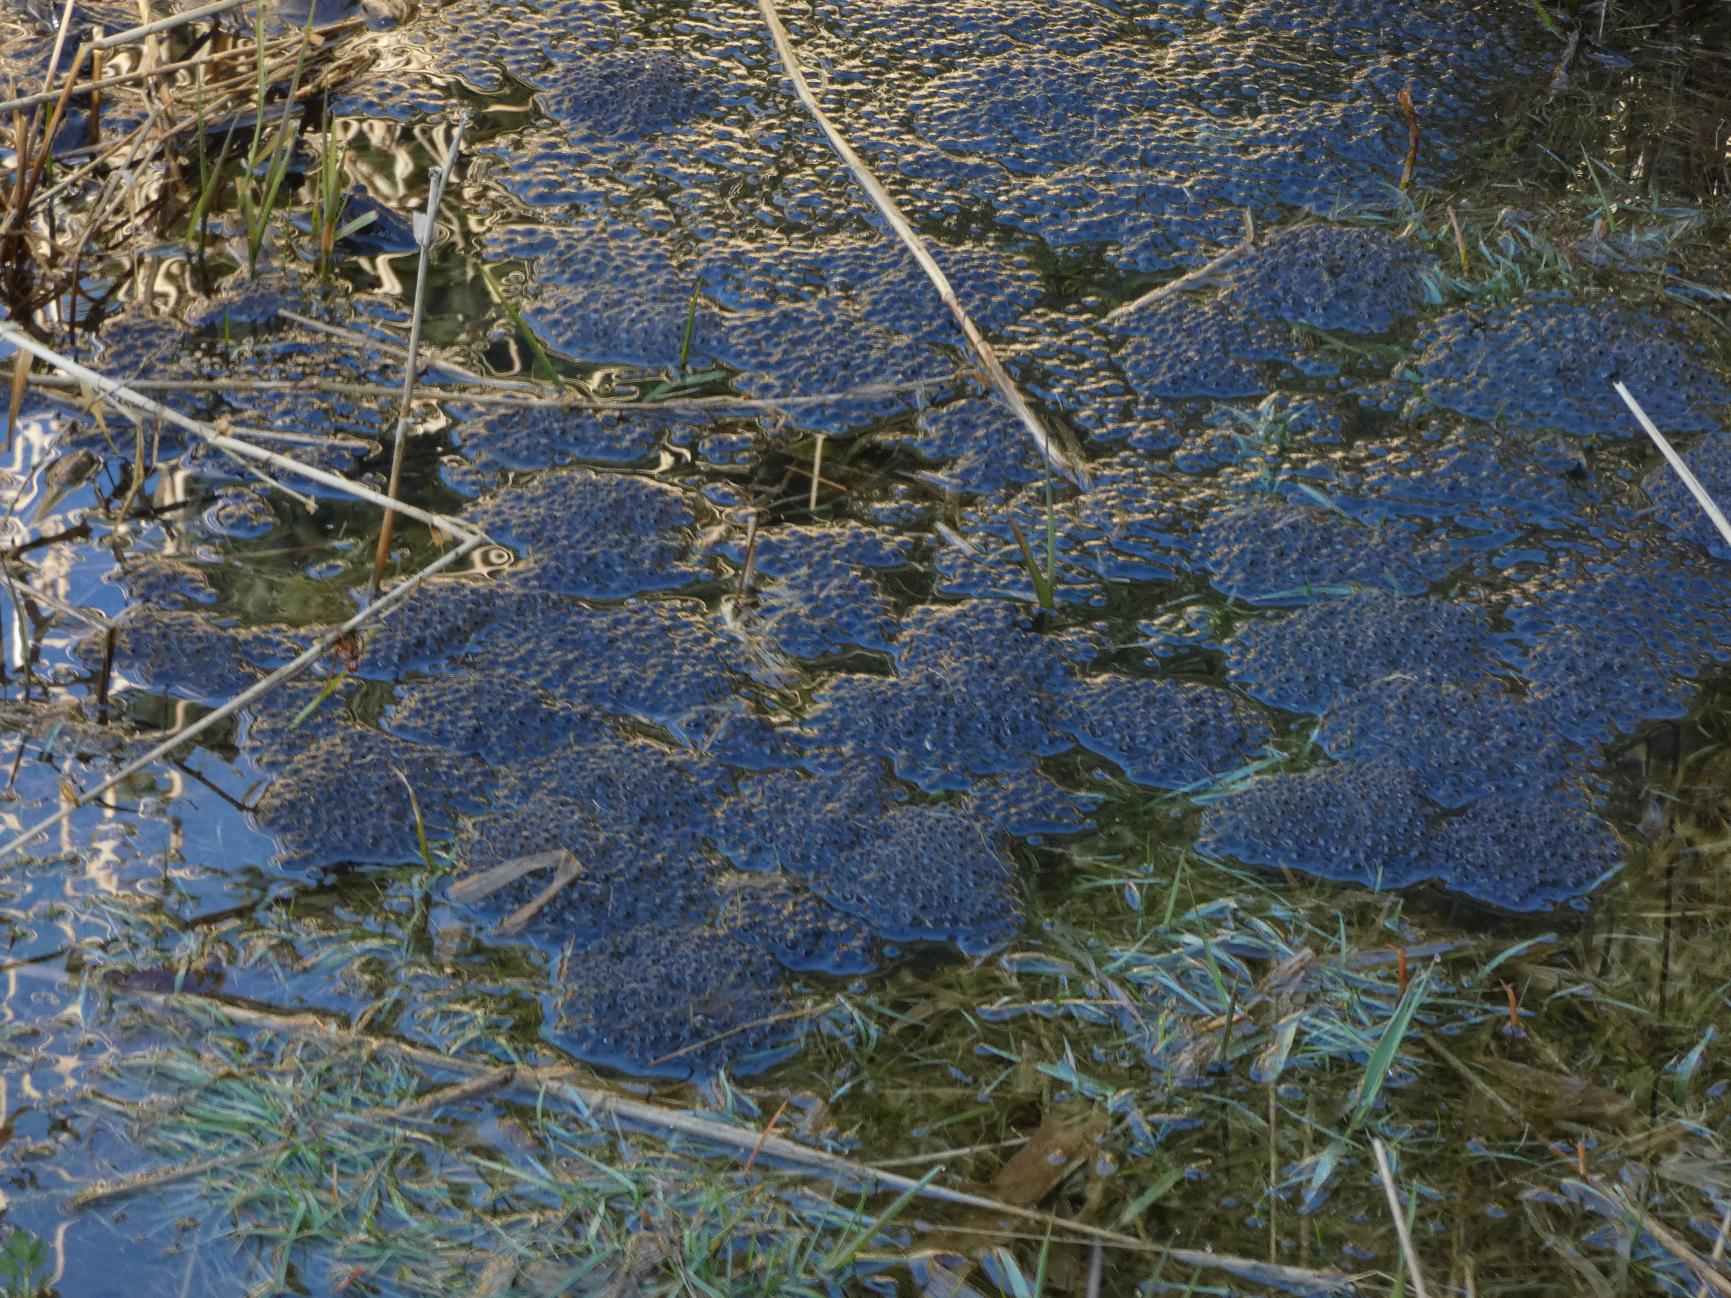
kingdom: Animalia
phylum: Chordata
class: Amphibia
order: Anura
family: Ranidae
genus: Rana
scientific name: Rana temporaria
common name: Butsnudet frø
